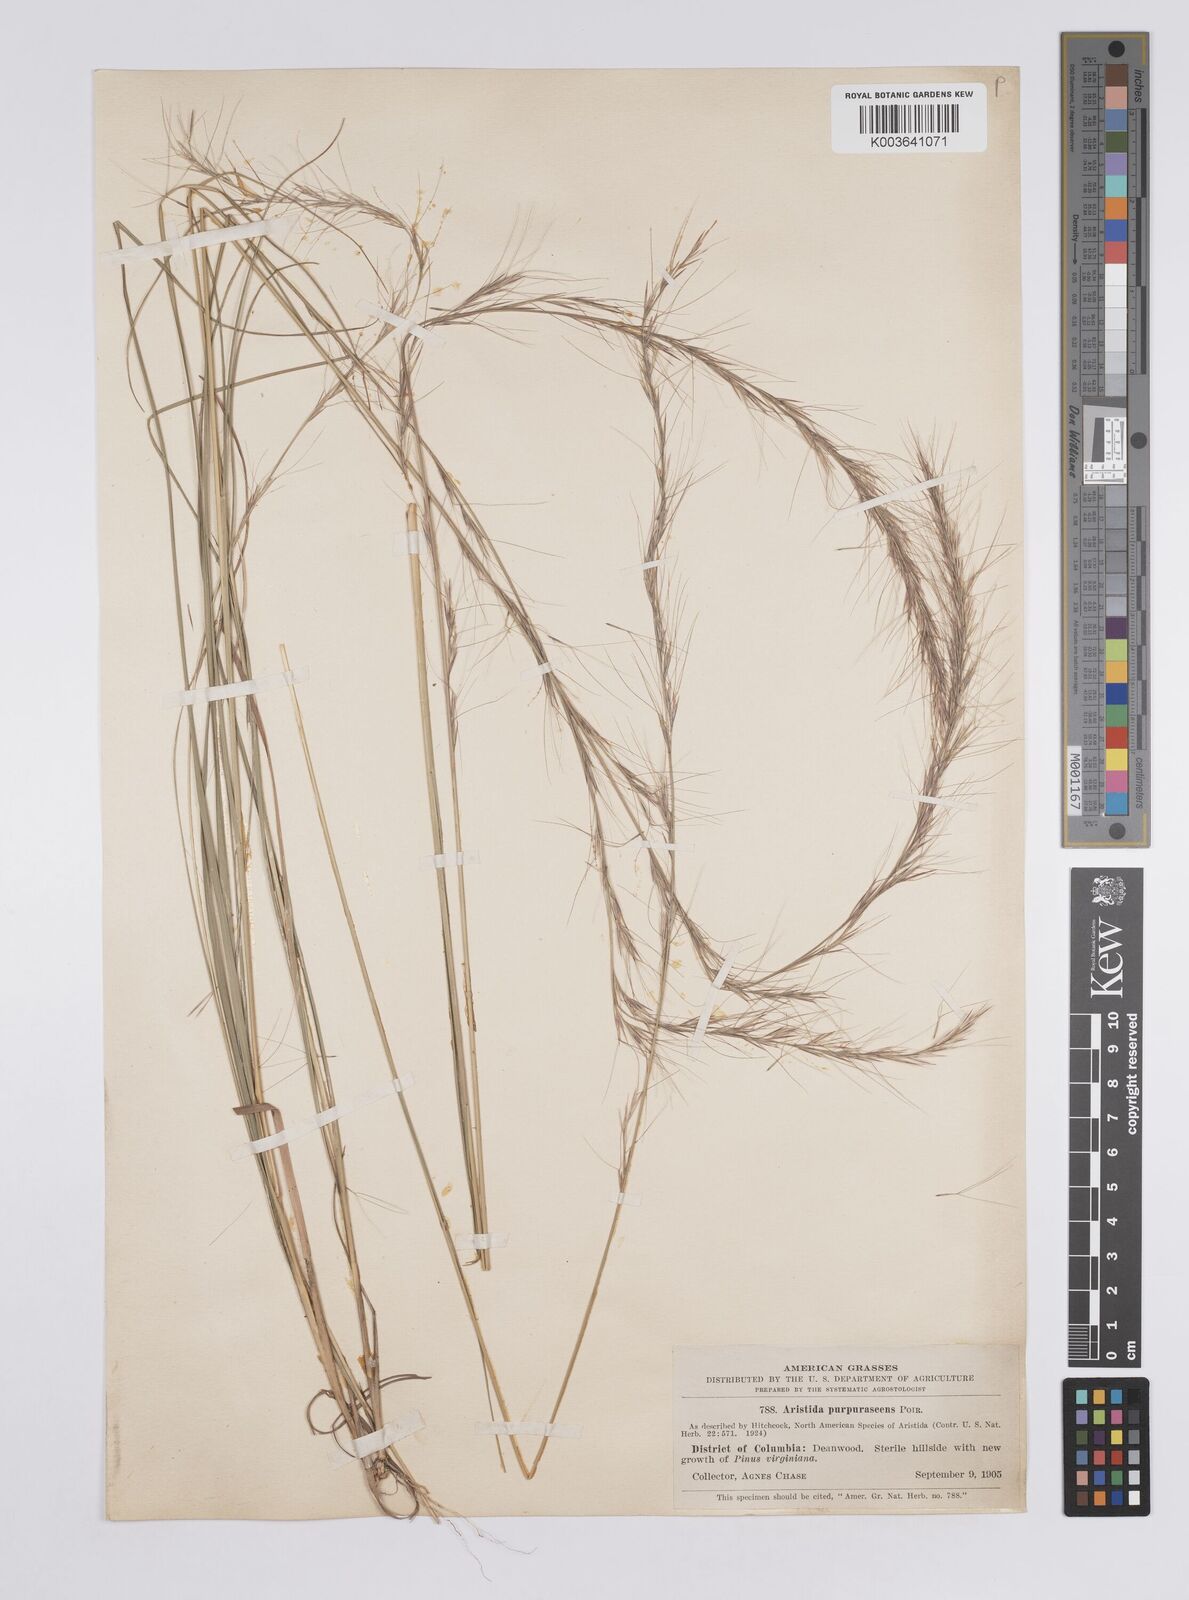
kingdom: Plantae
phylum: Tracheophyta
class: Liliopsida
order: Poales
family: Poaceae
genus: Aristida
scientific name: Aristida purpurascens
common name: Arrow-feather
